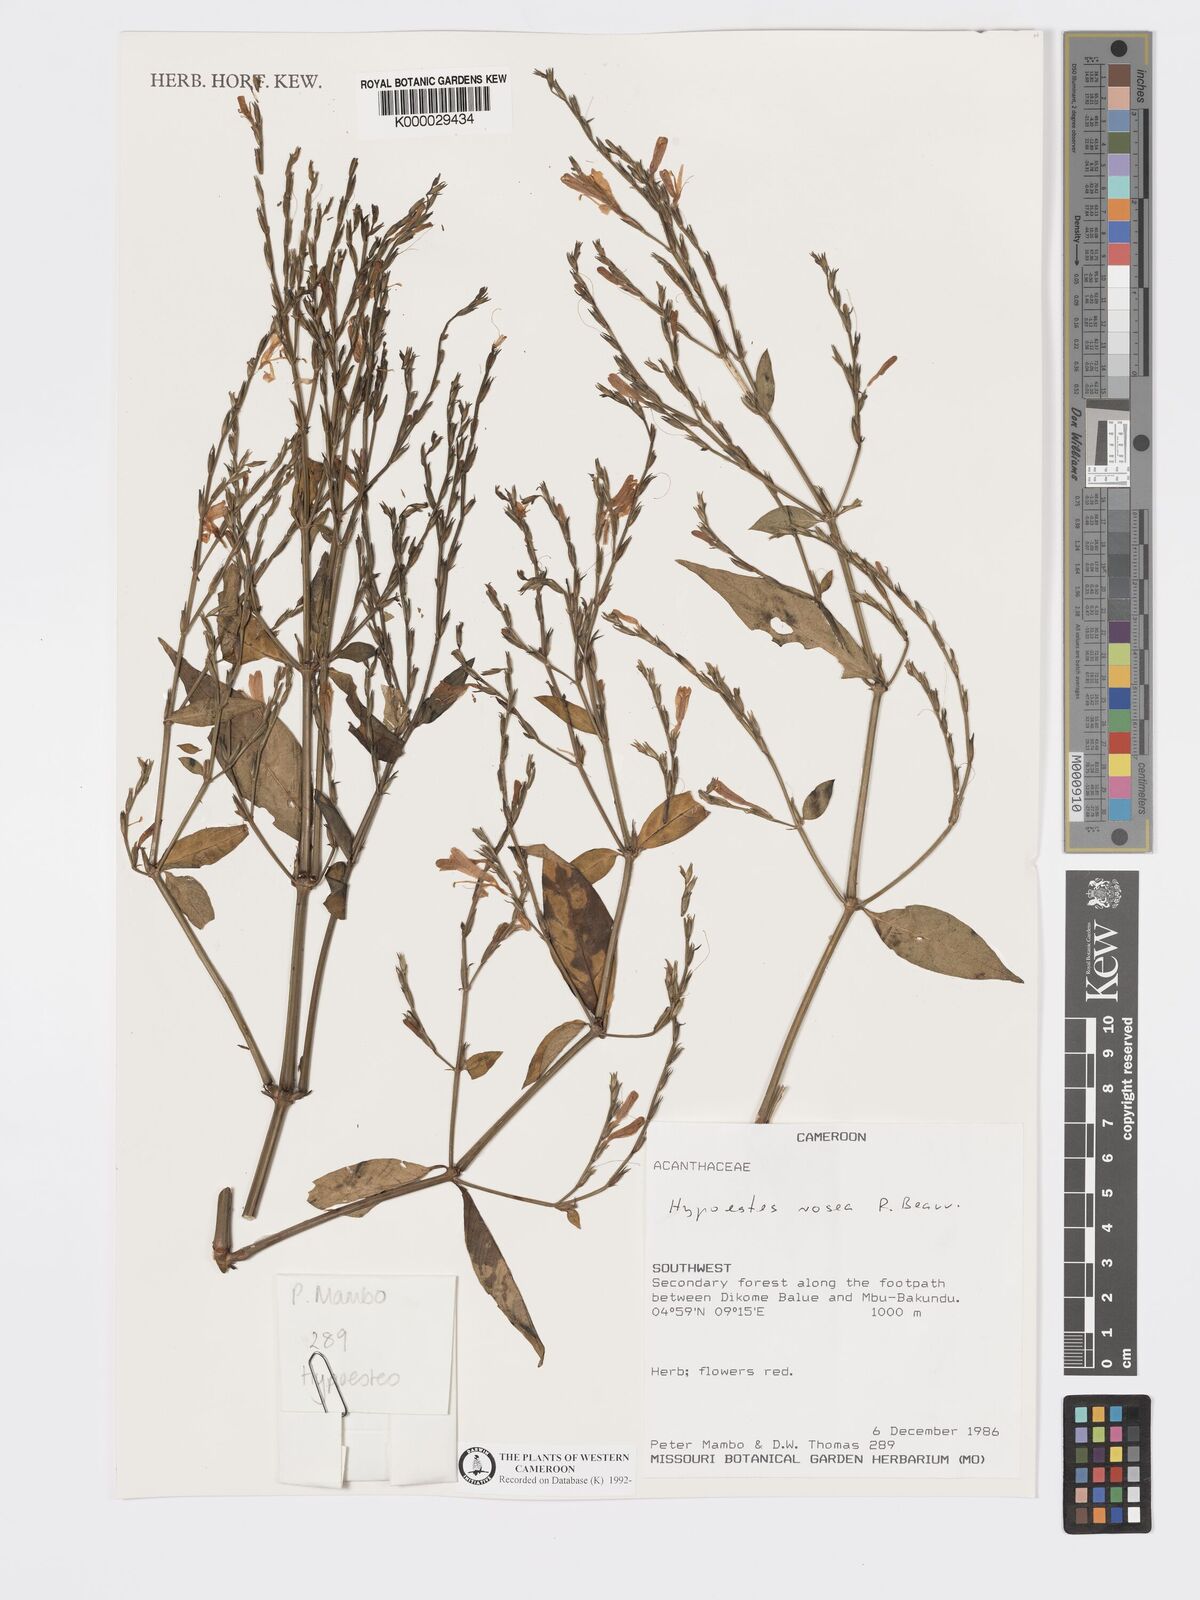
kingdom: Plantae
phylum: Tracheophyta
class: Magnoliopsida
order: Lamiales
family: Acanthaceae
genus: Hypoestes
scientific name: Hypoestes rosea
